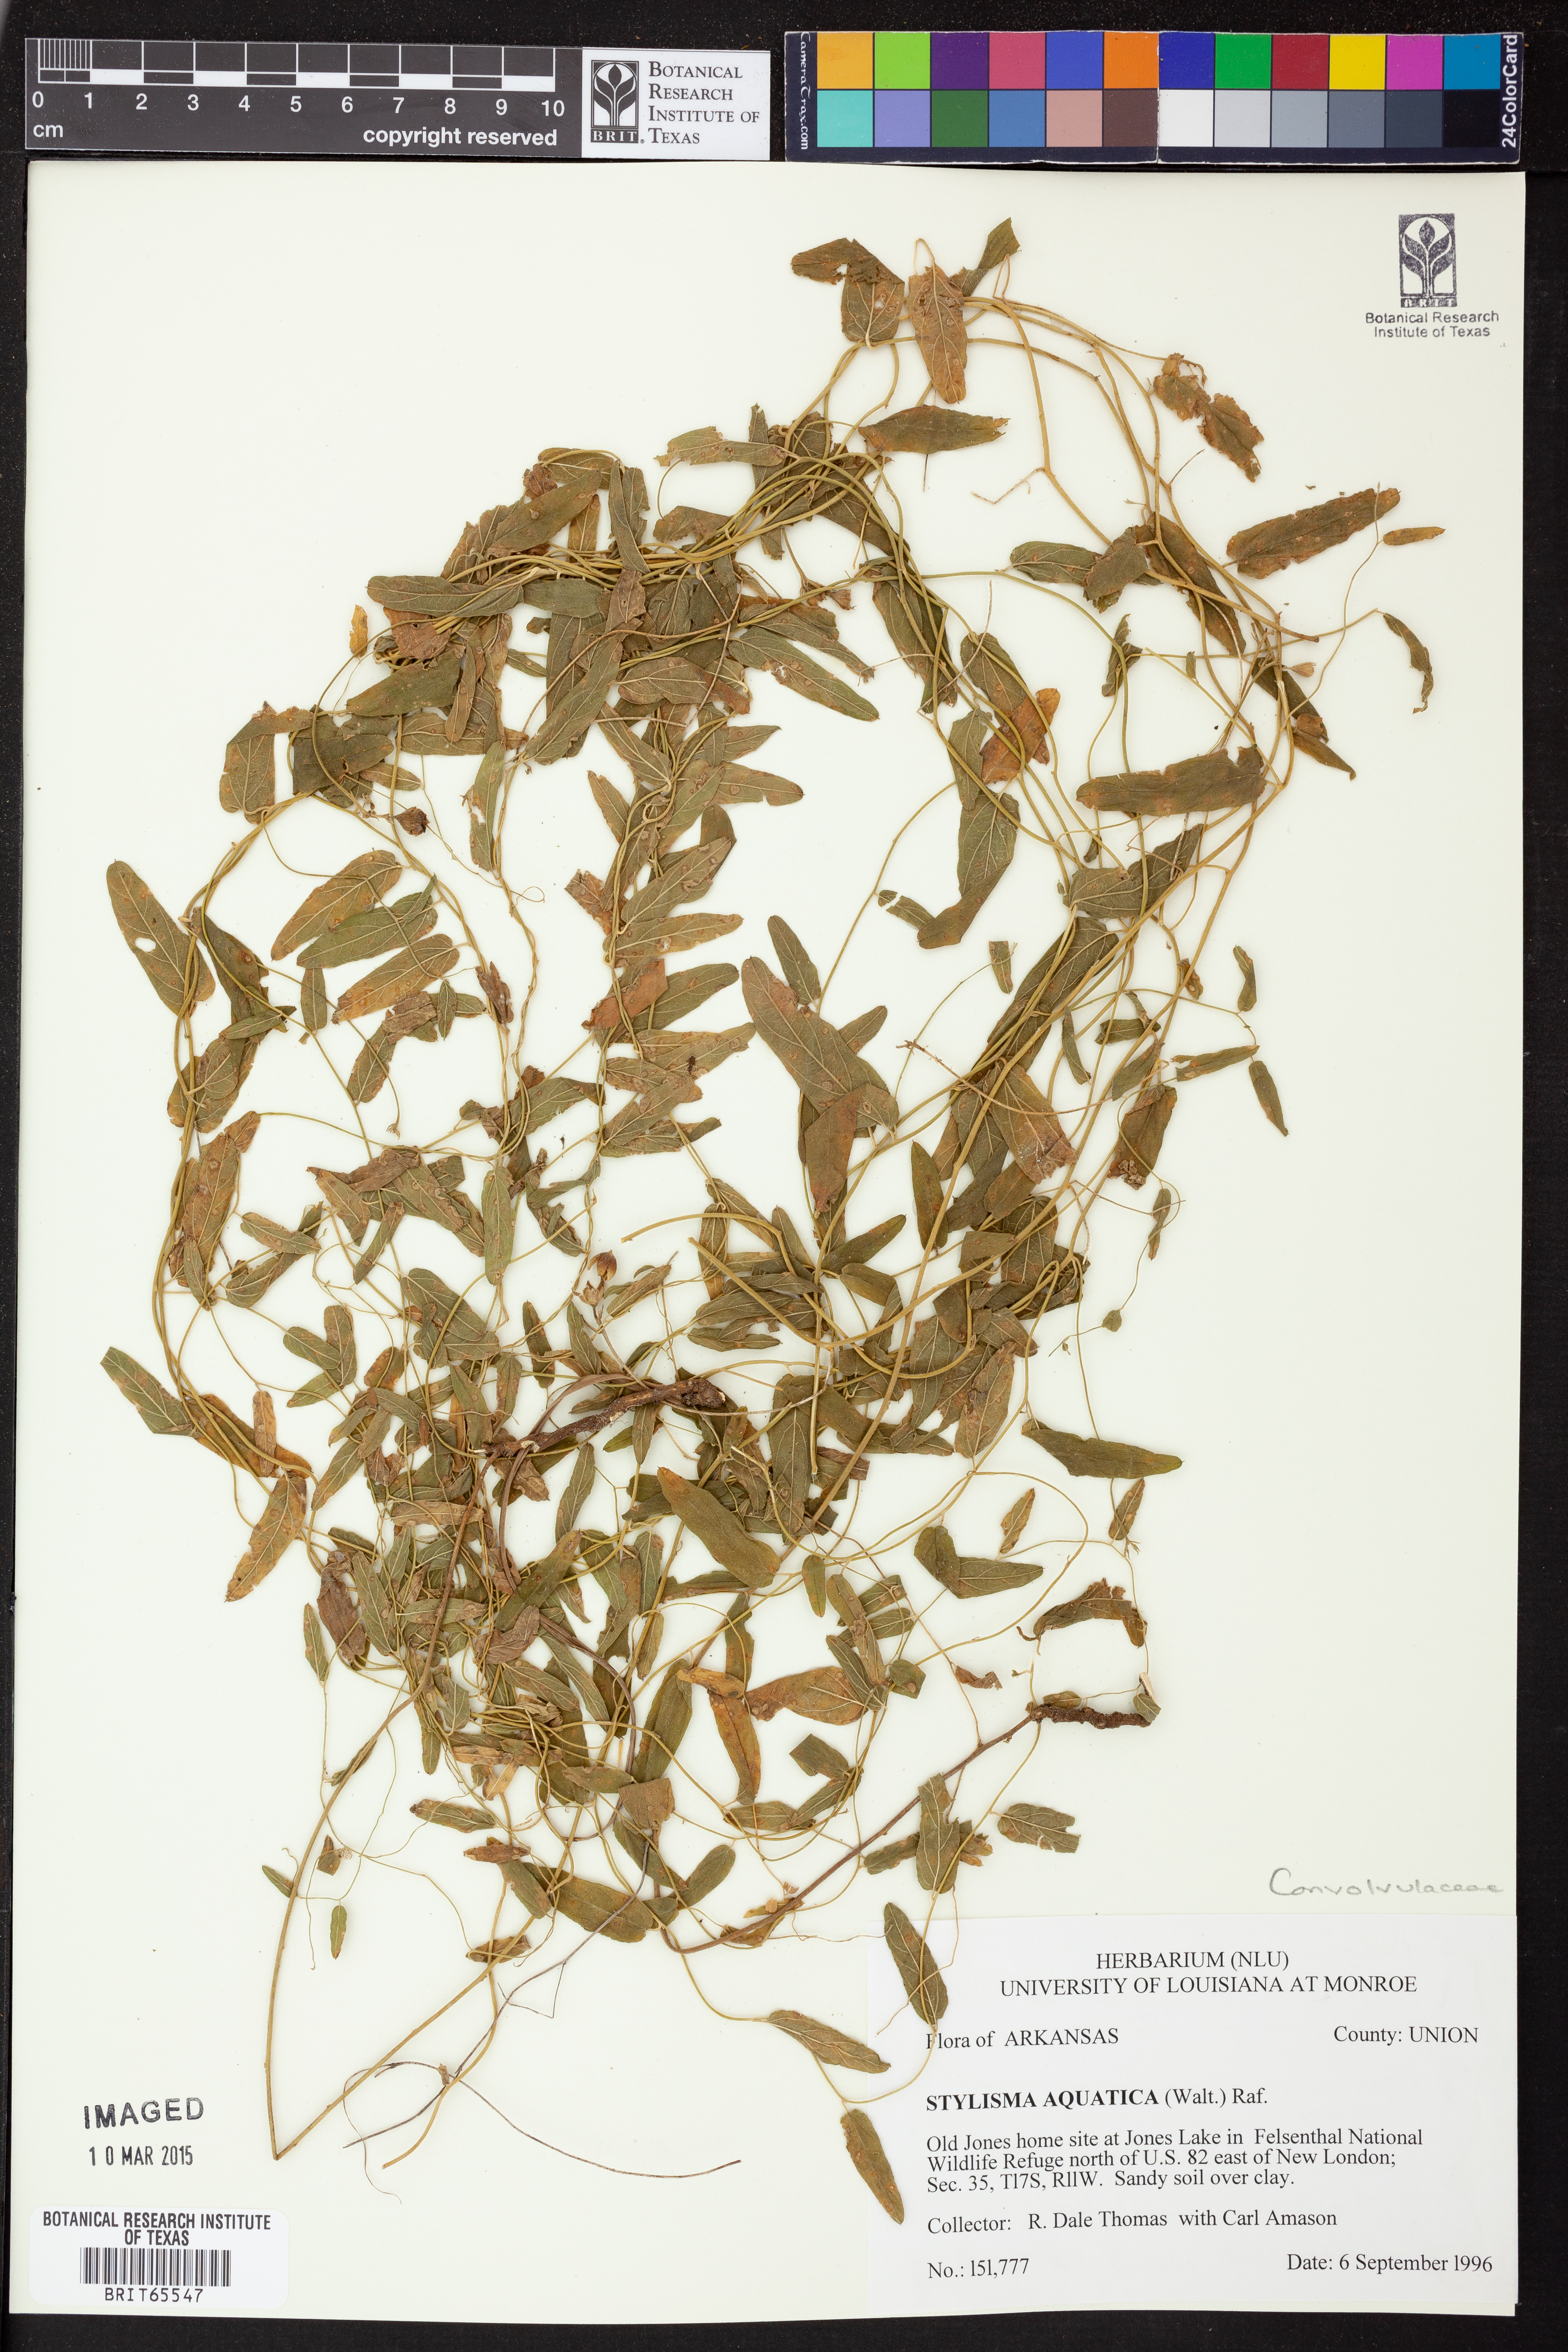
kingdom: Plantae
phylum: Tracheophyta
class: Magnoliopsida
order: Solanales
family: Convolvulaceae
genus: Stylisma
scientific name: Stylisma
